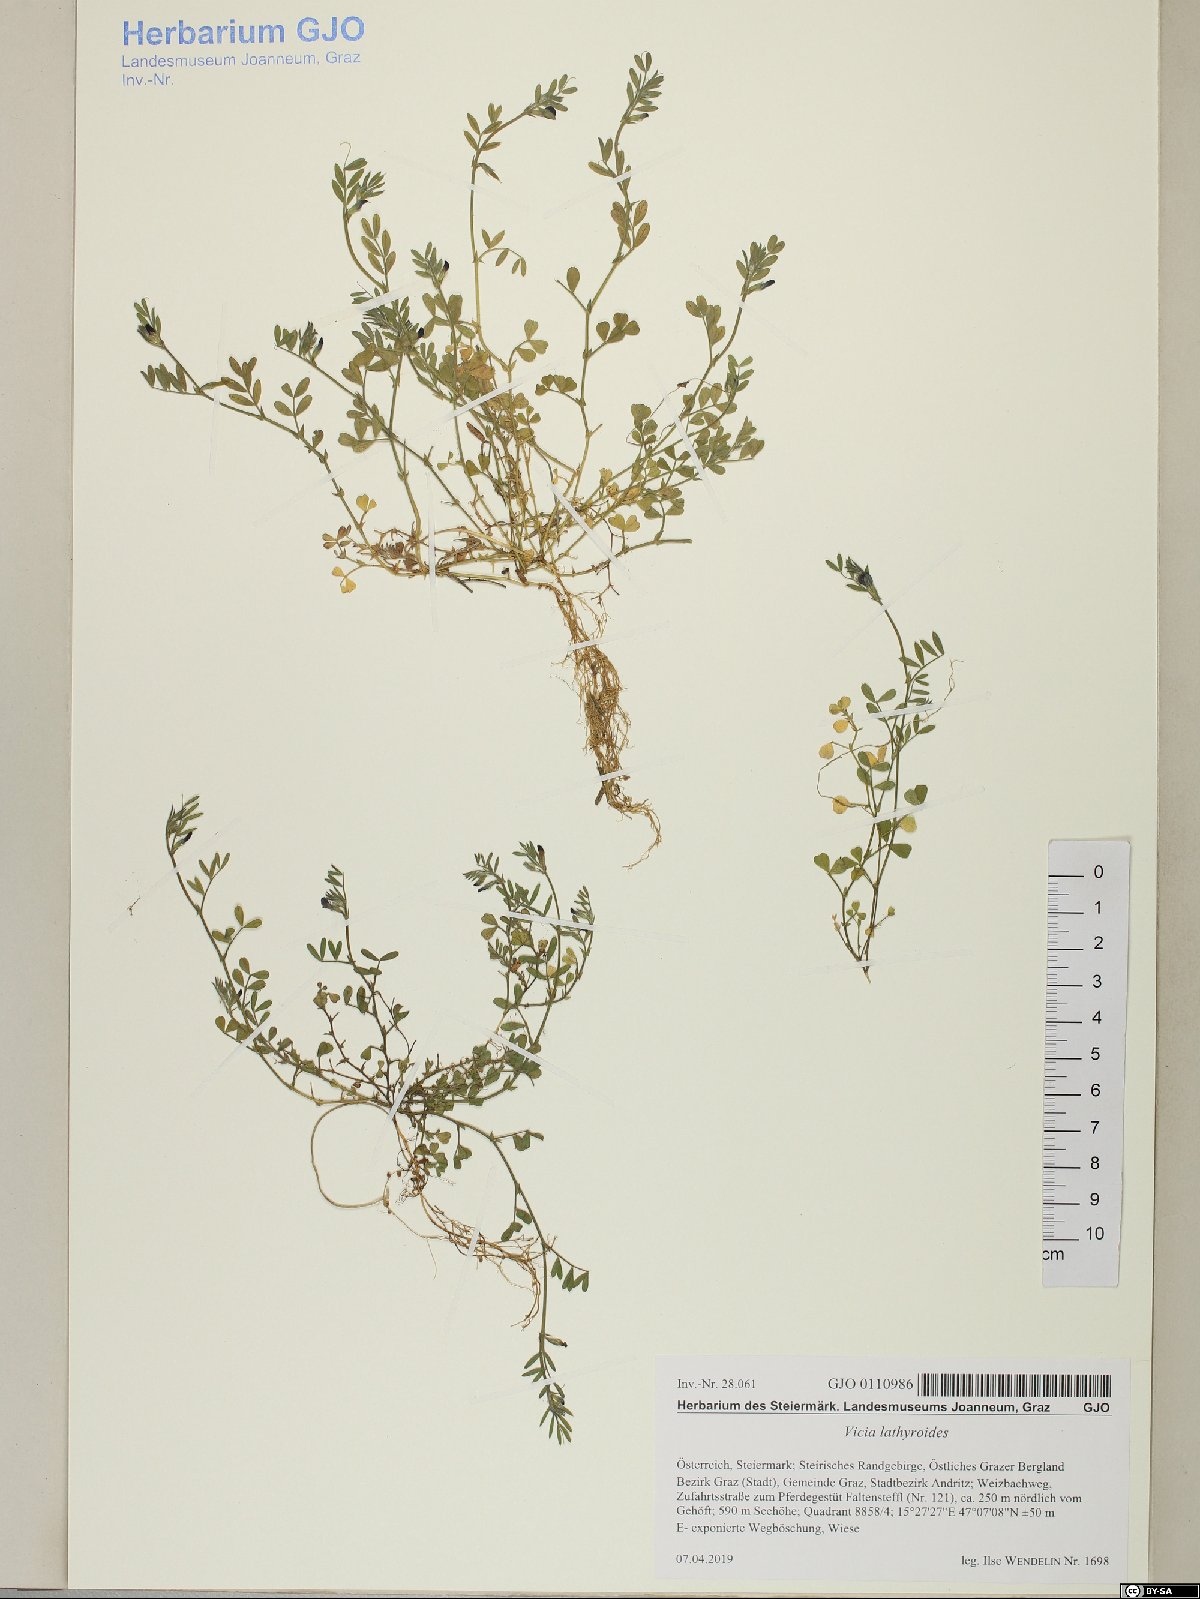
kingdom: Plantae
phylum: Tracheophyta
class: Magnoliopsida
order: Fabales
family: Fabaceae
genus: Vicia
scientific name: Vicia lathyroides
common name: Spring vetch
